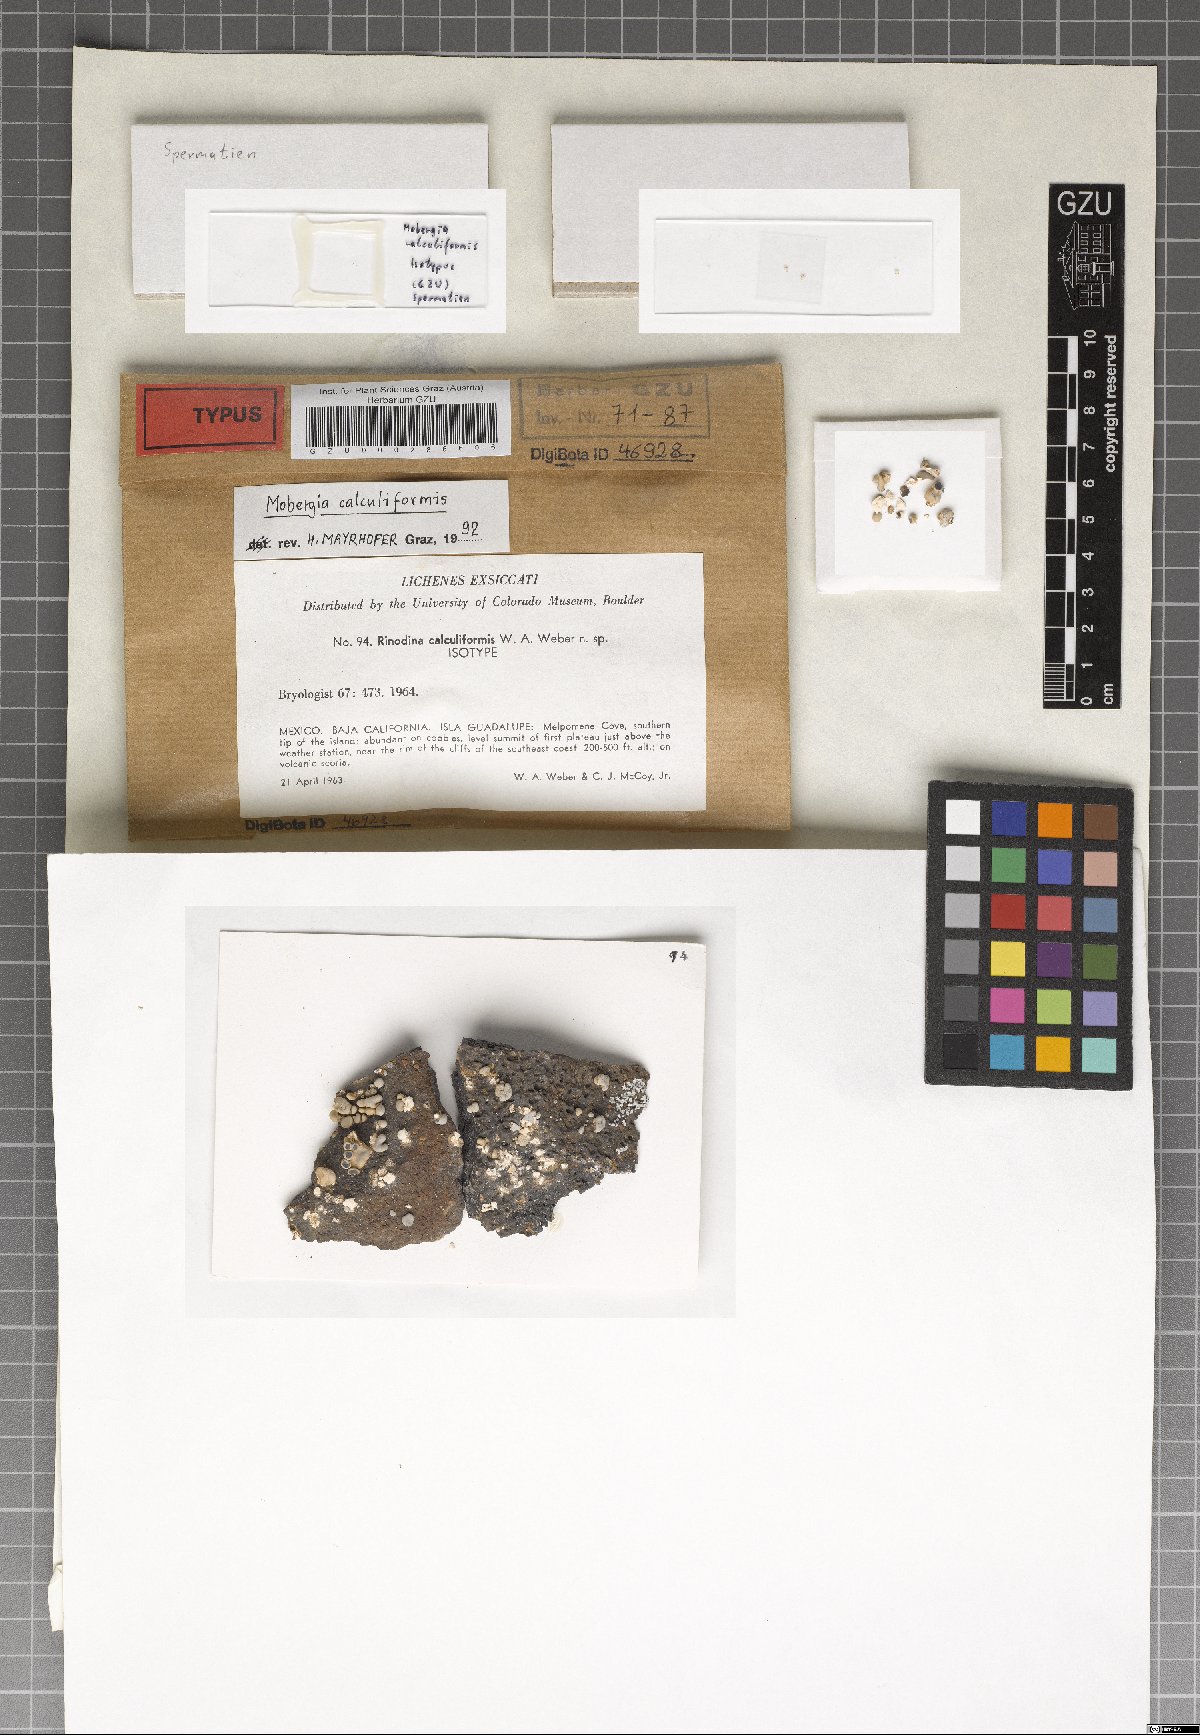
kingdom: Fungi
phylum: Ascomycota
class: Lecanoromycetes
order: Caliciales
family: Physciaceae
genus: Mobergia
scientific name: Mobergia calculiformis
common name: Coastal popcorn lichen
